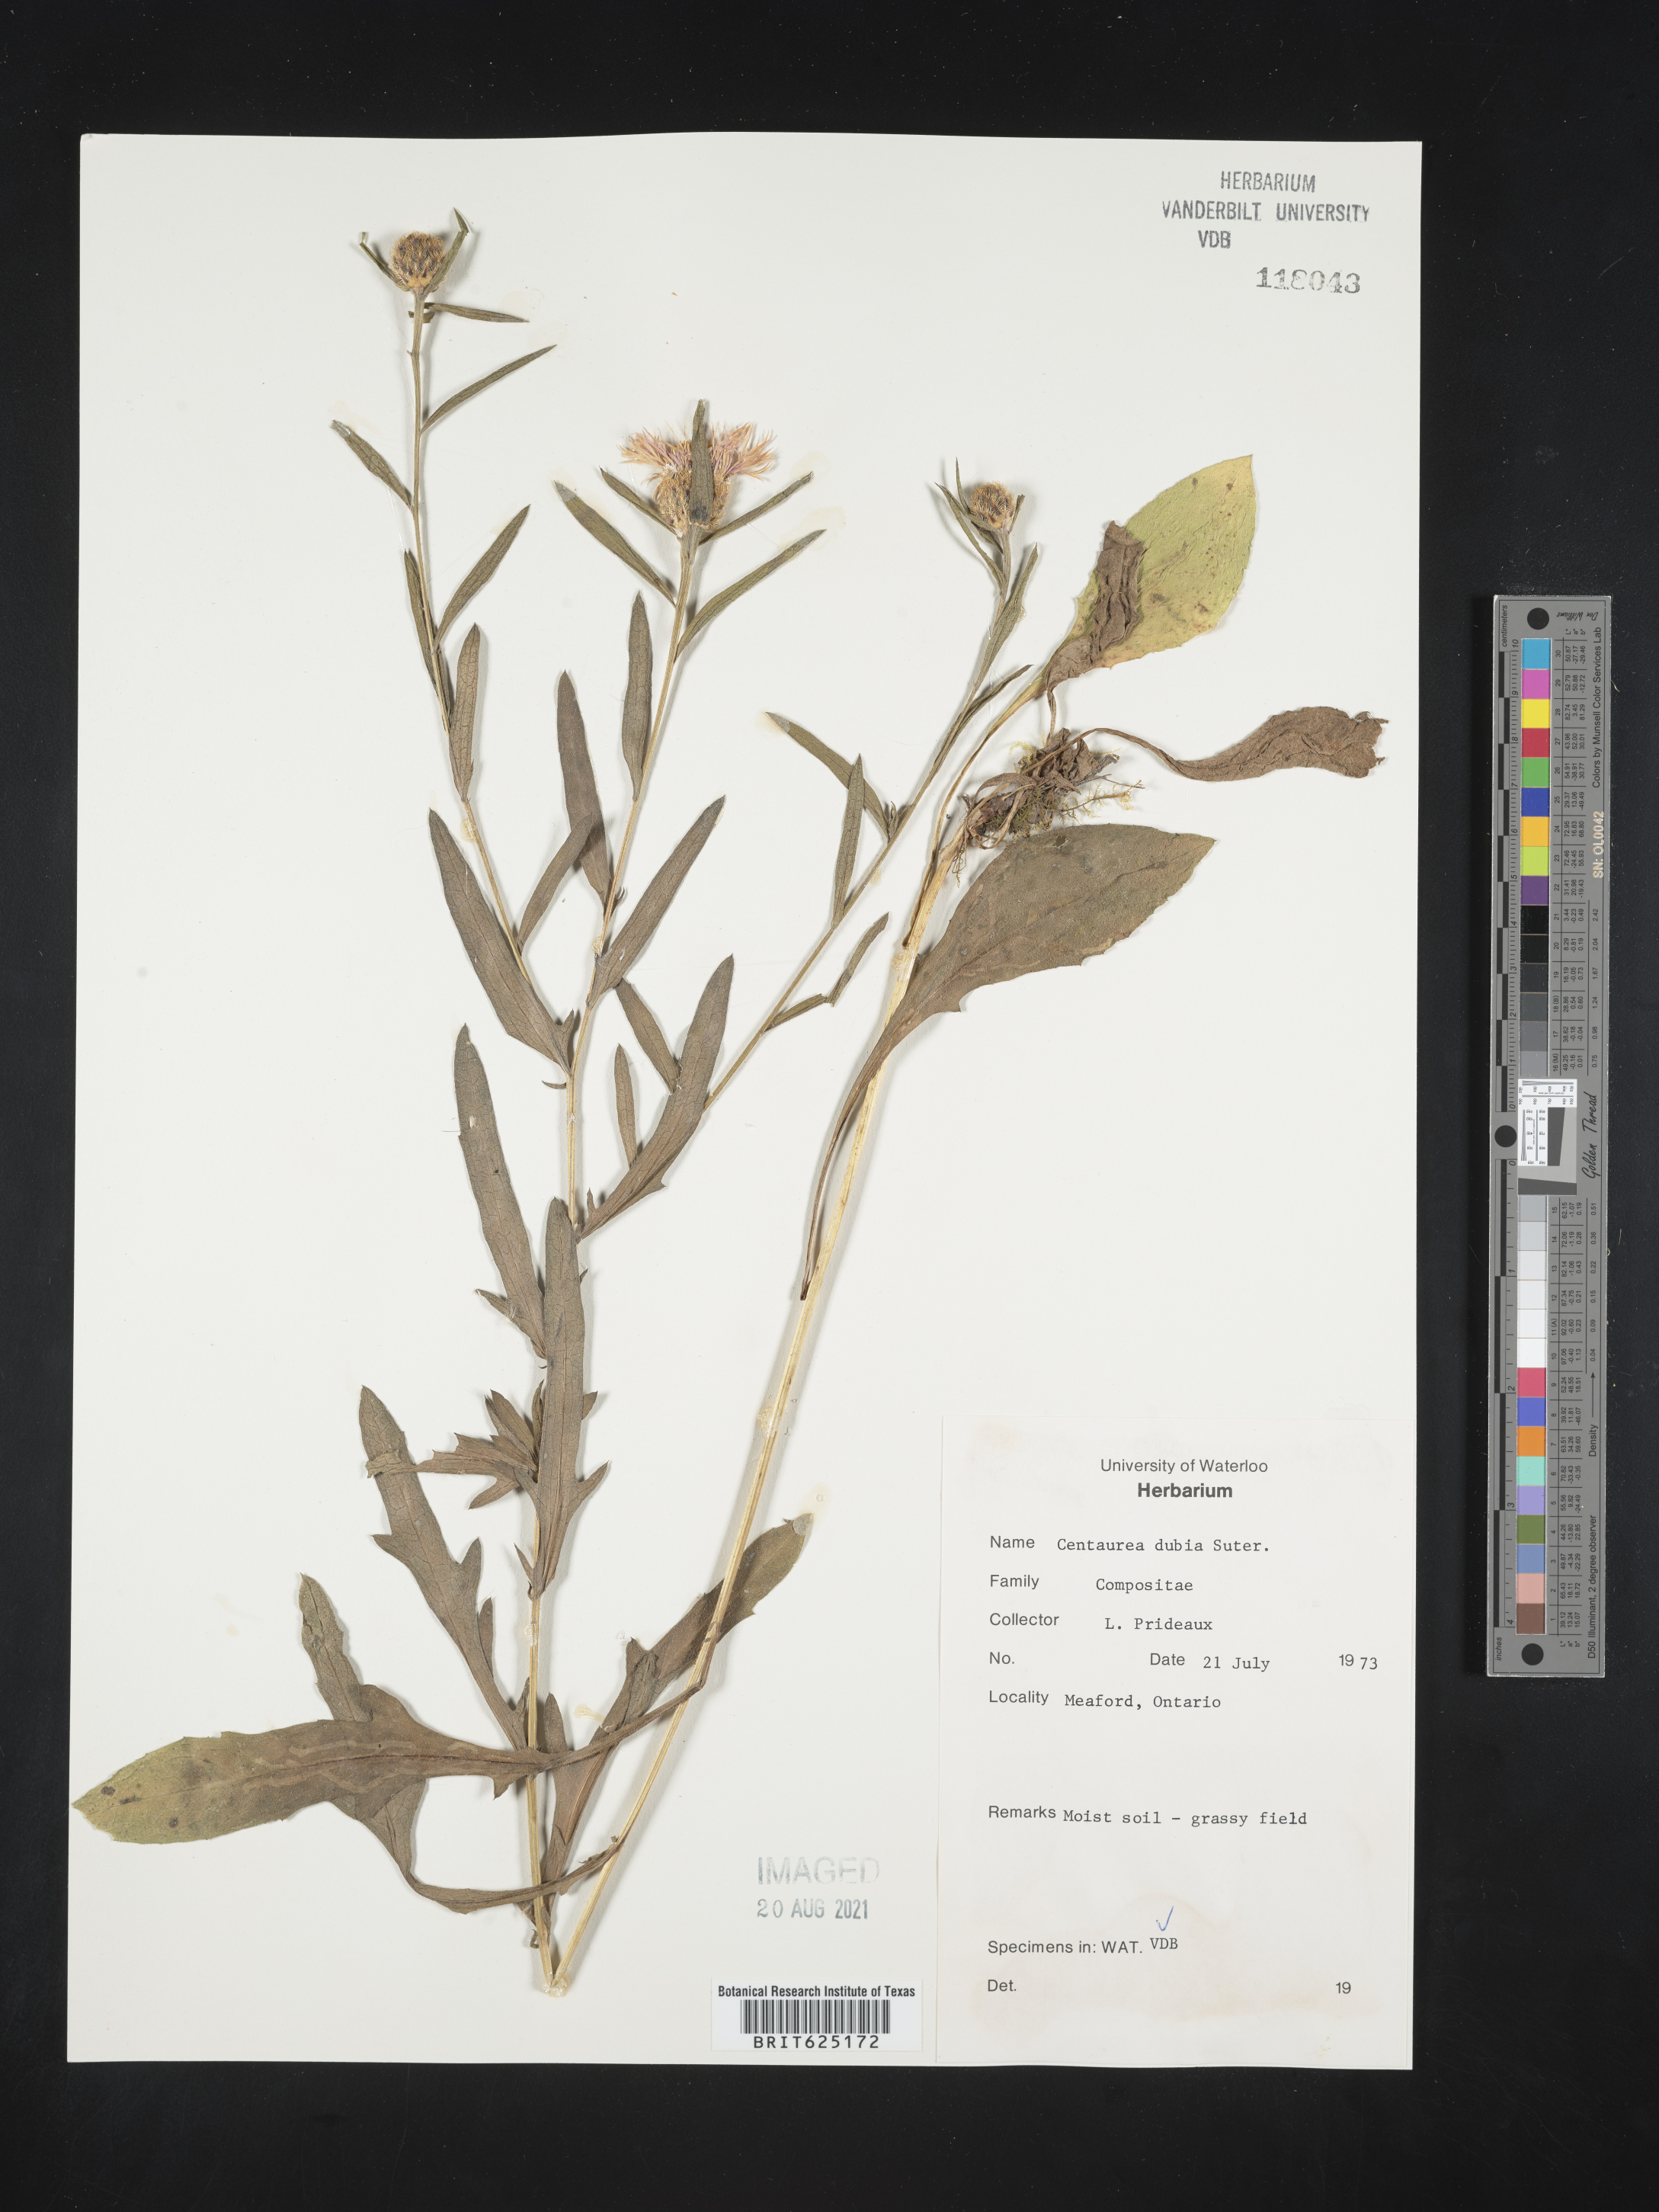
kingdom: Plantae
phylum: Tracheophyta
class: Magnoliopsida
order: Asterales
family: Asteraceae
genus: Centaurea
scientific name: Centaurea nigrescens
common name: Tyrol knapweed
